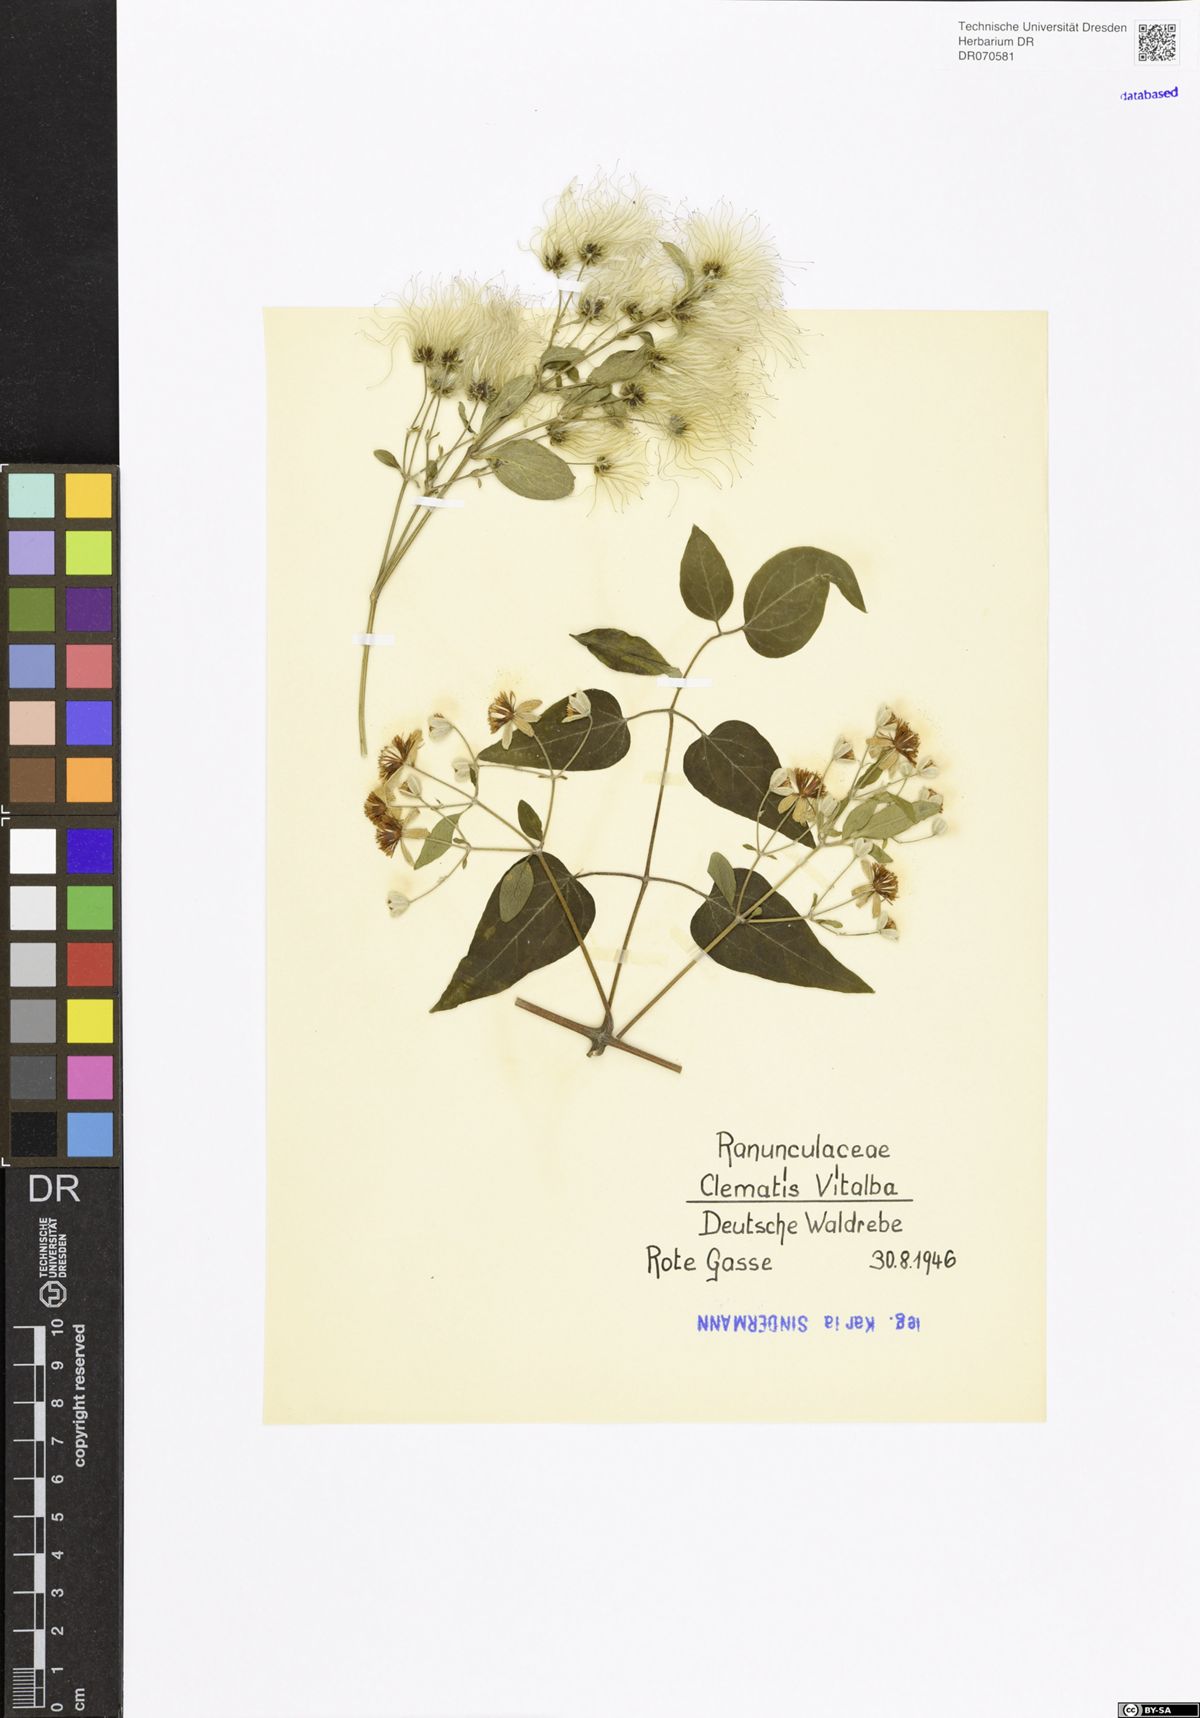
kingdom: Plantae
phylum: Tracheophyta
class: Magnoliopsida
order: Ranunculales
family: Ranunculaceae
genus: Clematis
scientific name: Clematis vitalba
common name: Evergreen clematis
